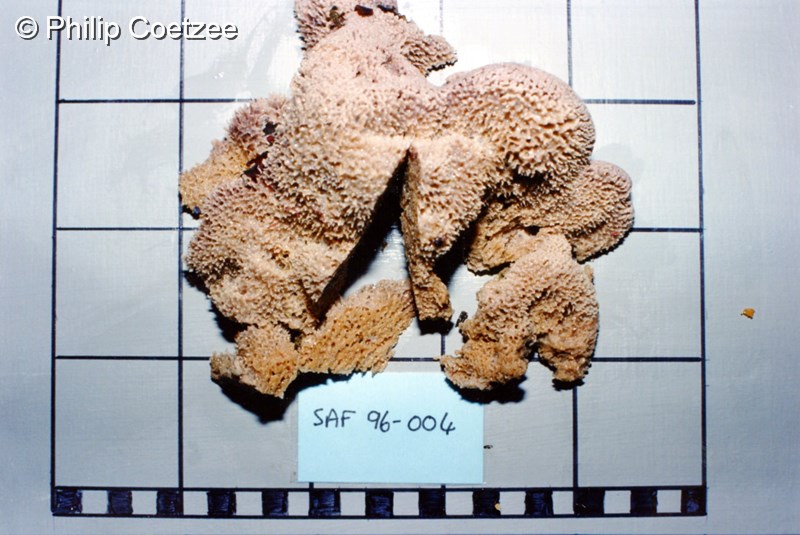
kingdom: Animalia
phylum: Porifera
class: Demospongiae
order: Dictyoceratida
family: Thorectidae
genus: Fasciospongia
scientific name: Fasciospongia
